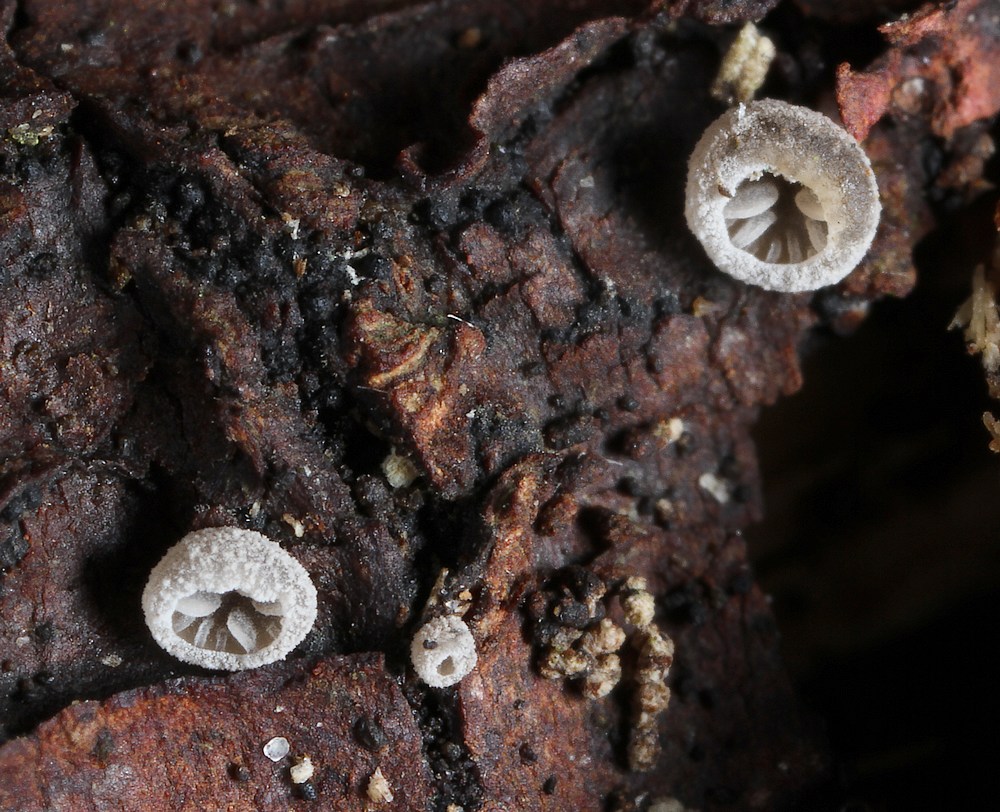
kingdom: Fungi
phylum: Basidiomycota
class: Agaricomycetes
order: Agaricales
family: Pleurotaceae
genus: Resupinatus
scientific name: Resupinatus trichotis
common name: mørkfiltet barkhat
